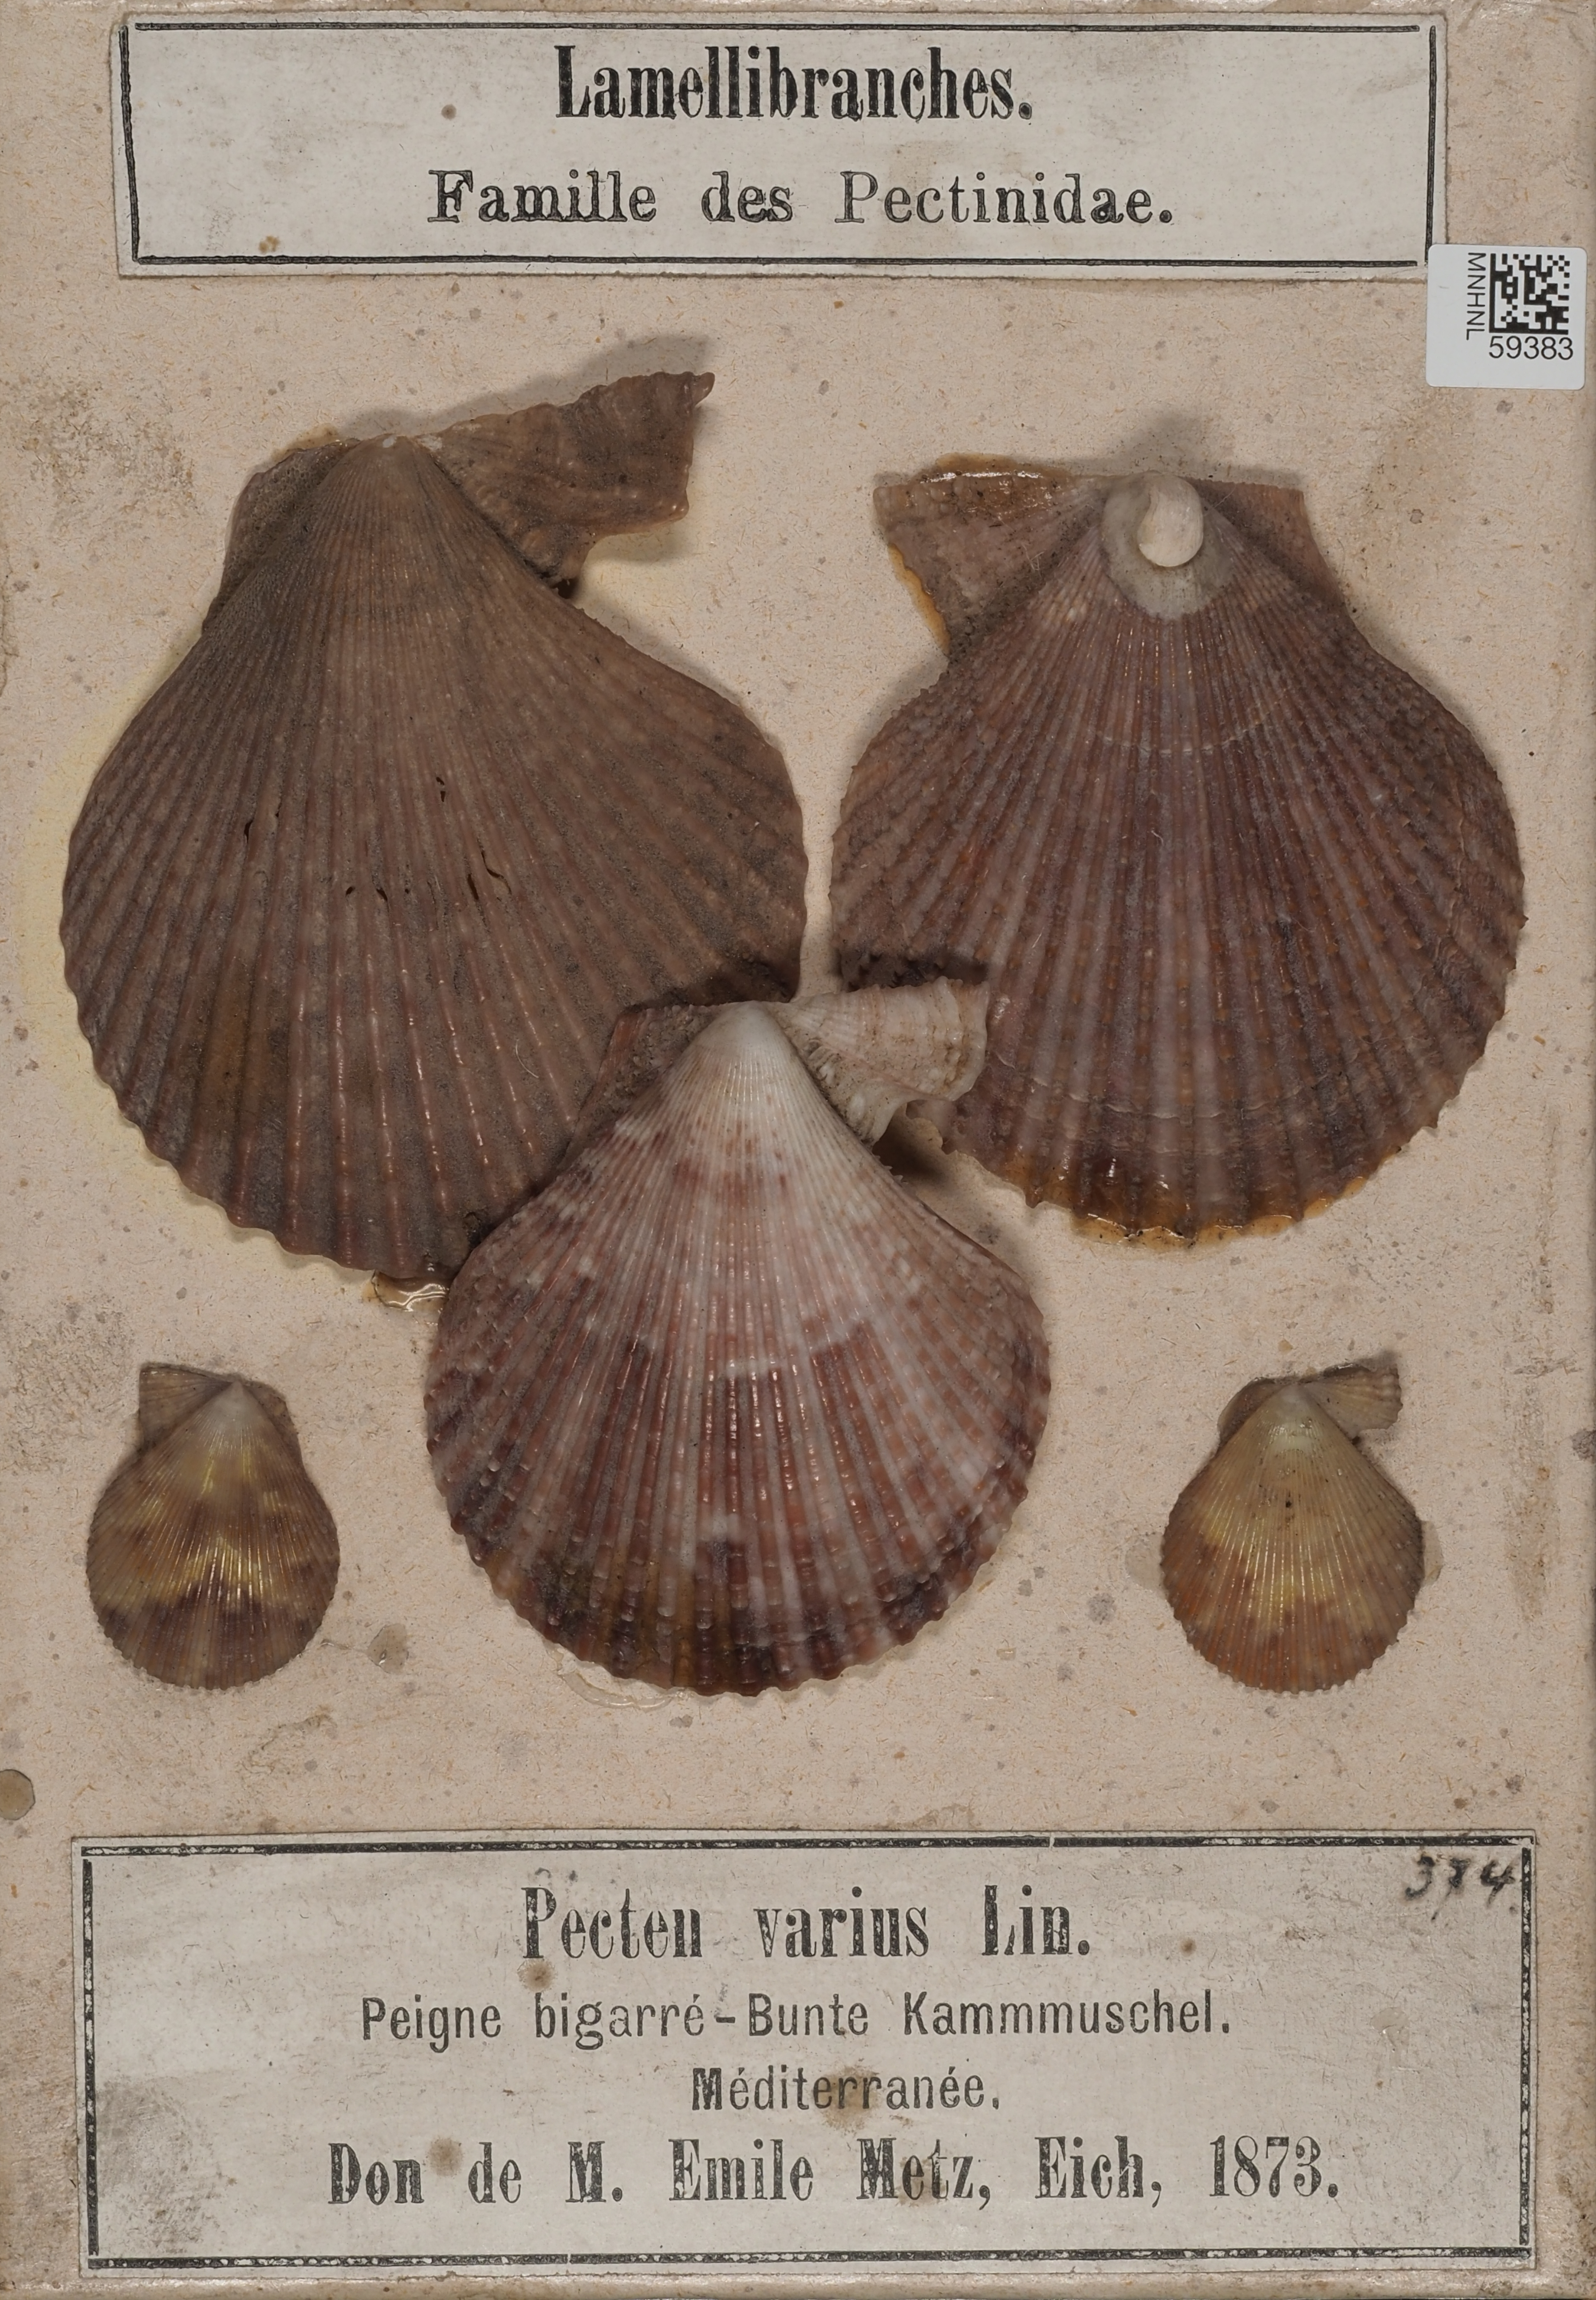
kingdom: Animalia
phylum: Mollusca
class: Bivalvia
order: Pectinida
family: Pectinidae
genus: Mimachlamys
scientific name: Mimachlamys varia
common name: Variegated scallop
